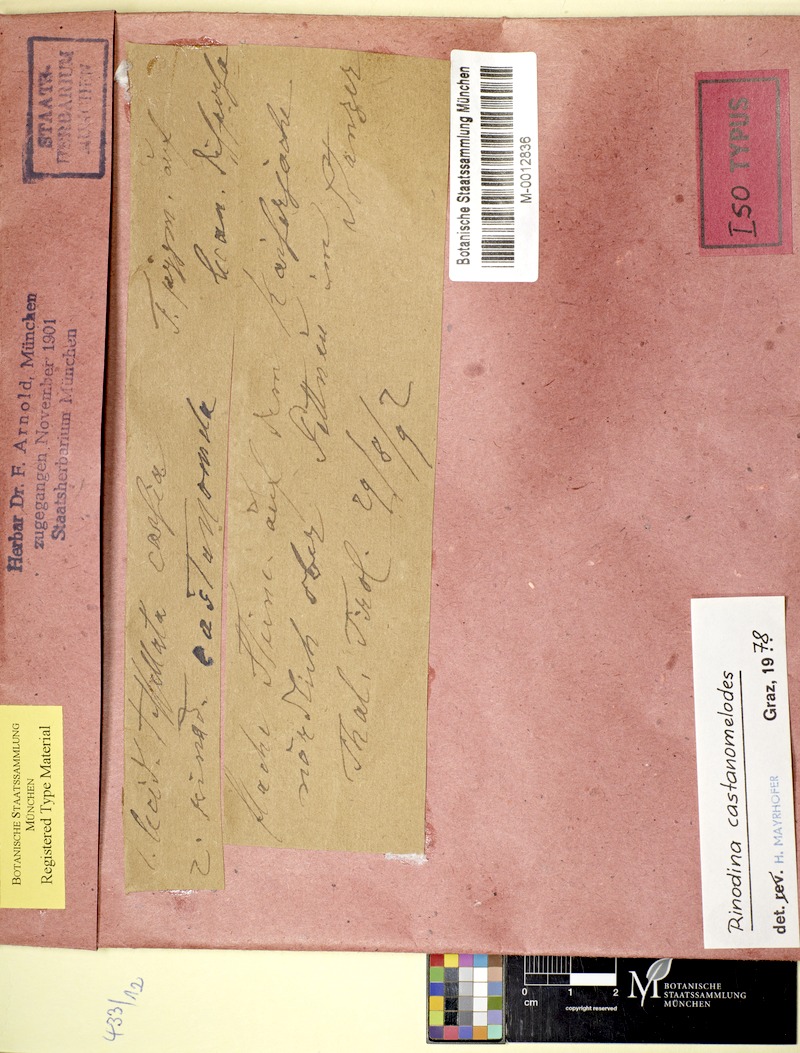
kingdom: Fungi
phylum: Ascomycota
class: Lecanoromycetes
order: Caliciales
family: Physciaceae
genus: Oxnerella
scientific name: Oxnerella castanomelodes
